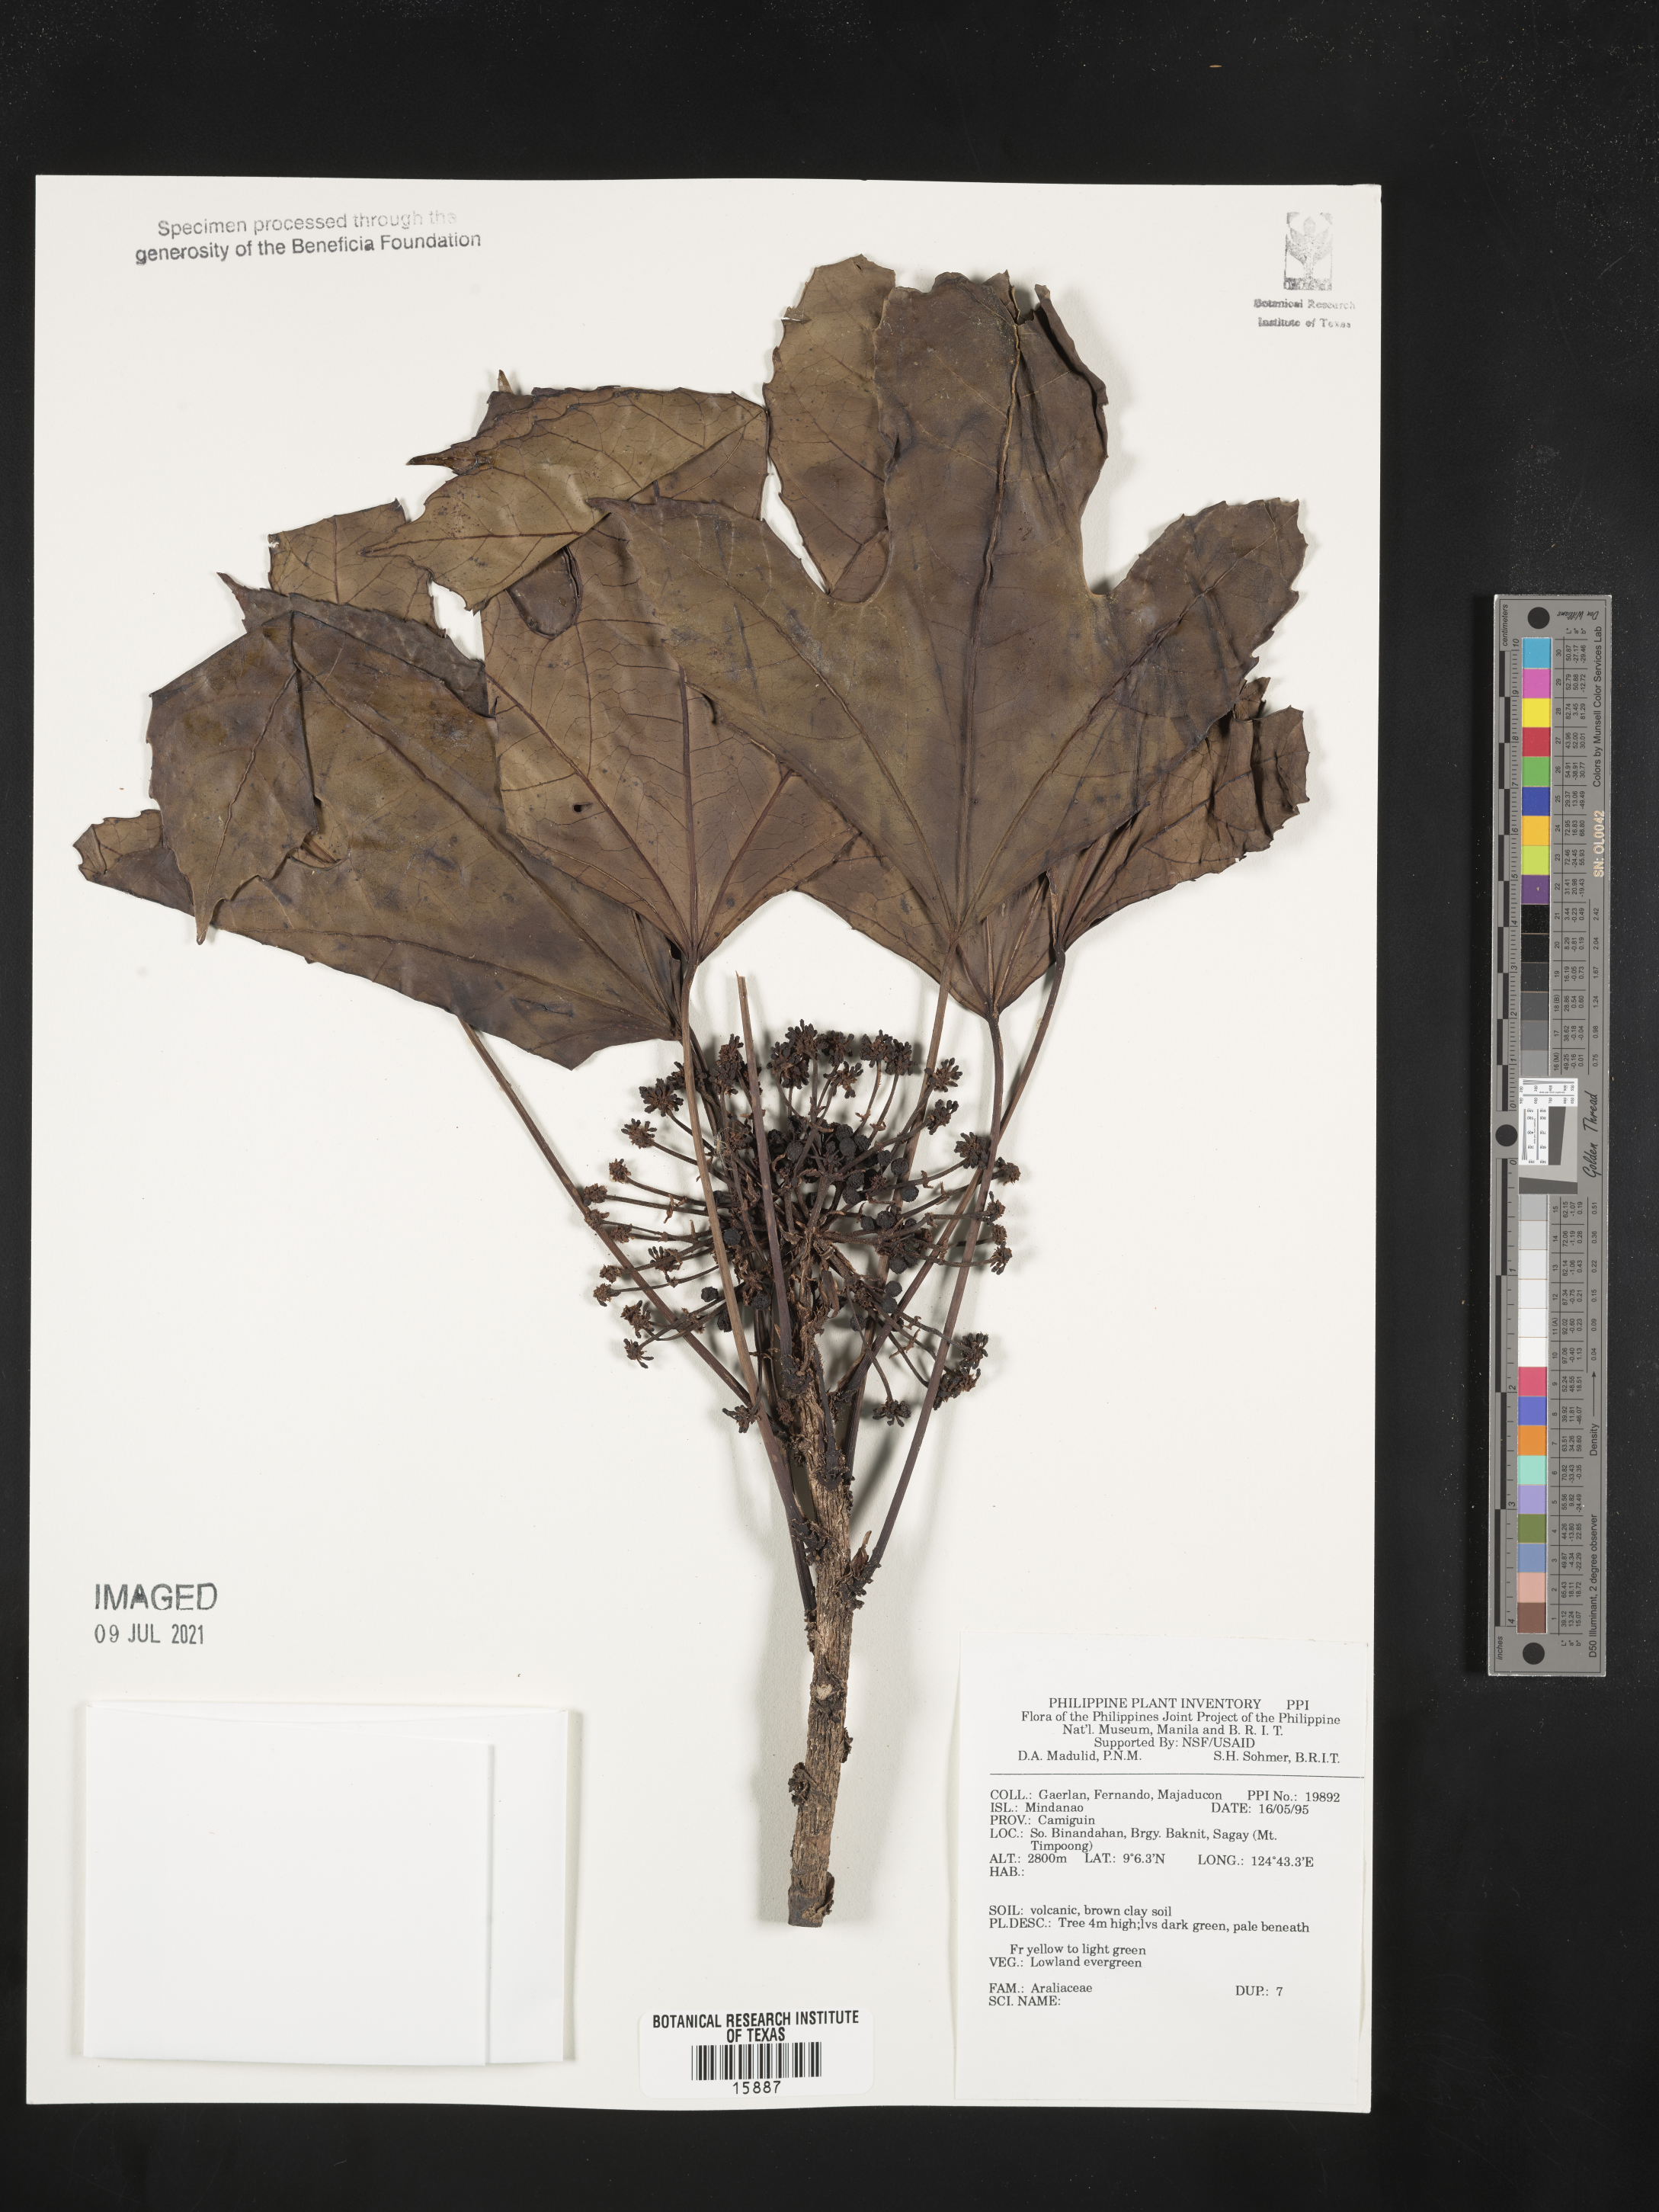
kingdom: Plantae
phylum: Tracheophyta
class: Magnoliopsida
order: Apiales
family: Araliaceae
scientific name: Araliaceae
